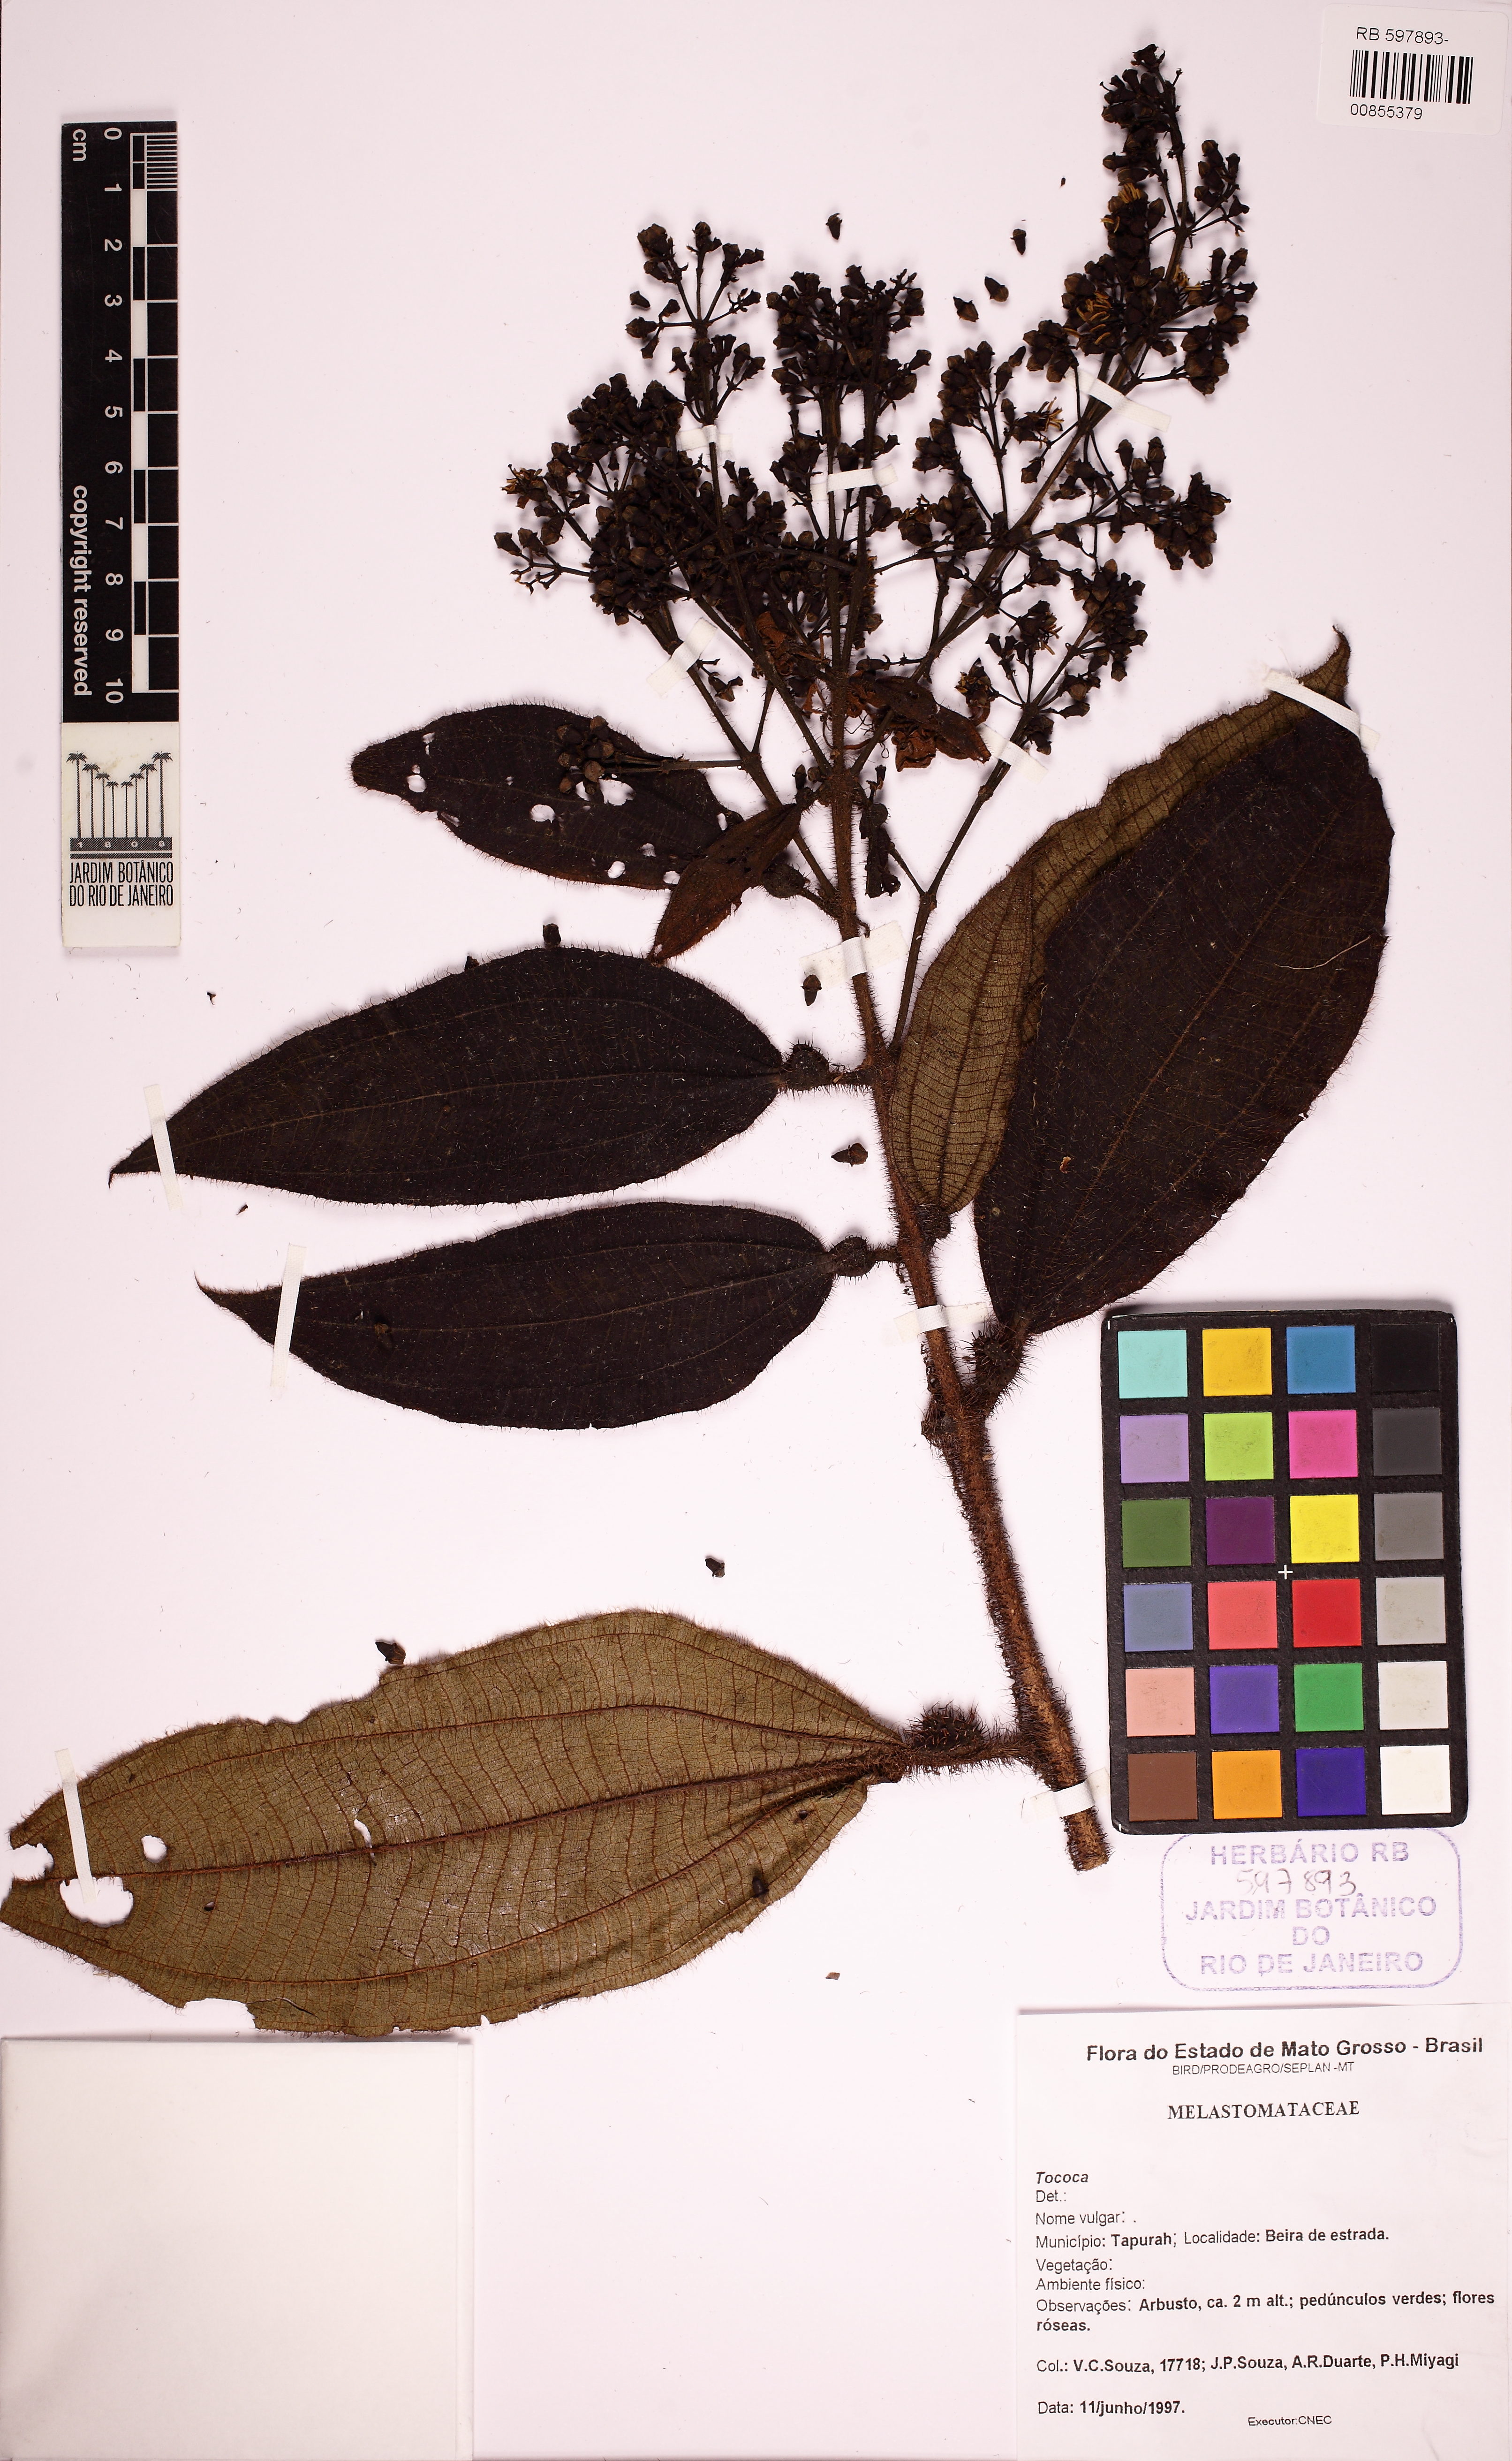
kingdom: Plantae
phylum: Tracheophyta
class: Magnoliopsida
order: Myrtales
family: Melastomataceae
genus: Miconia
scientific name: Miconia
